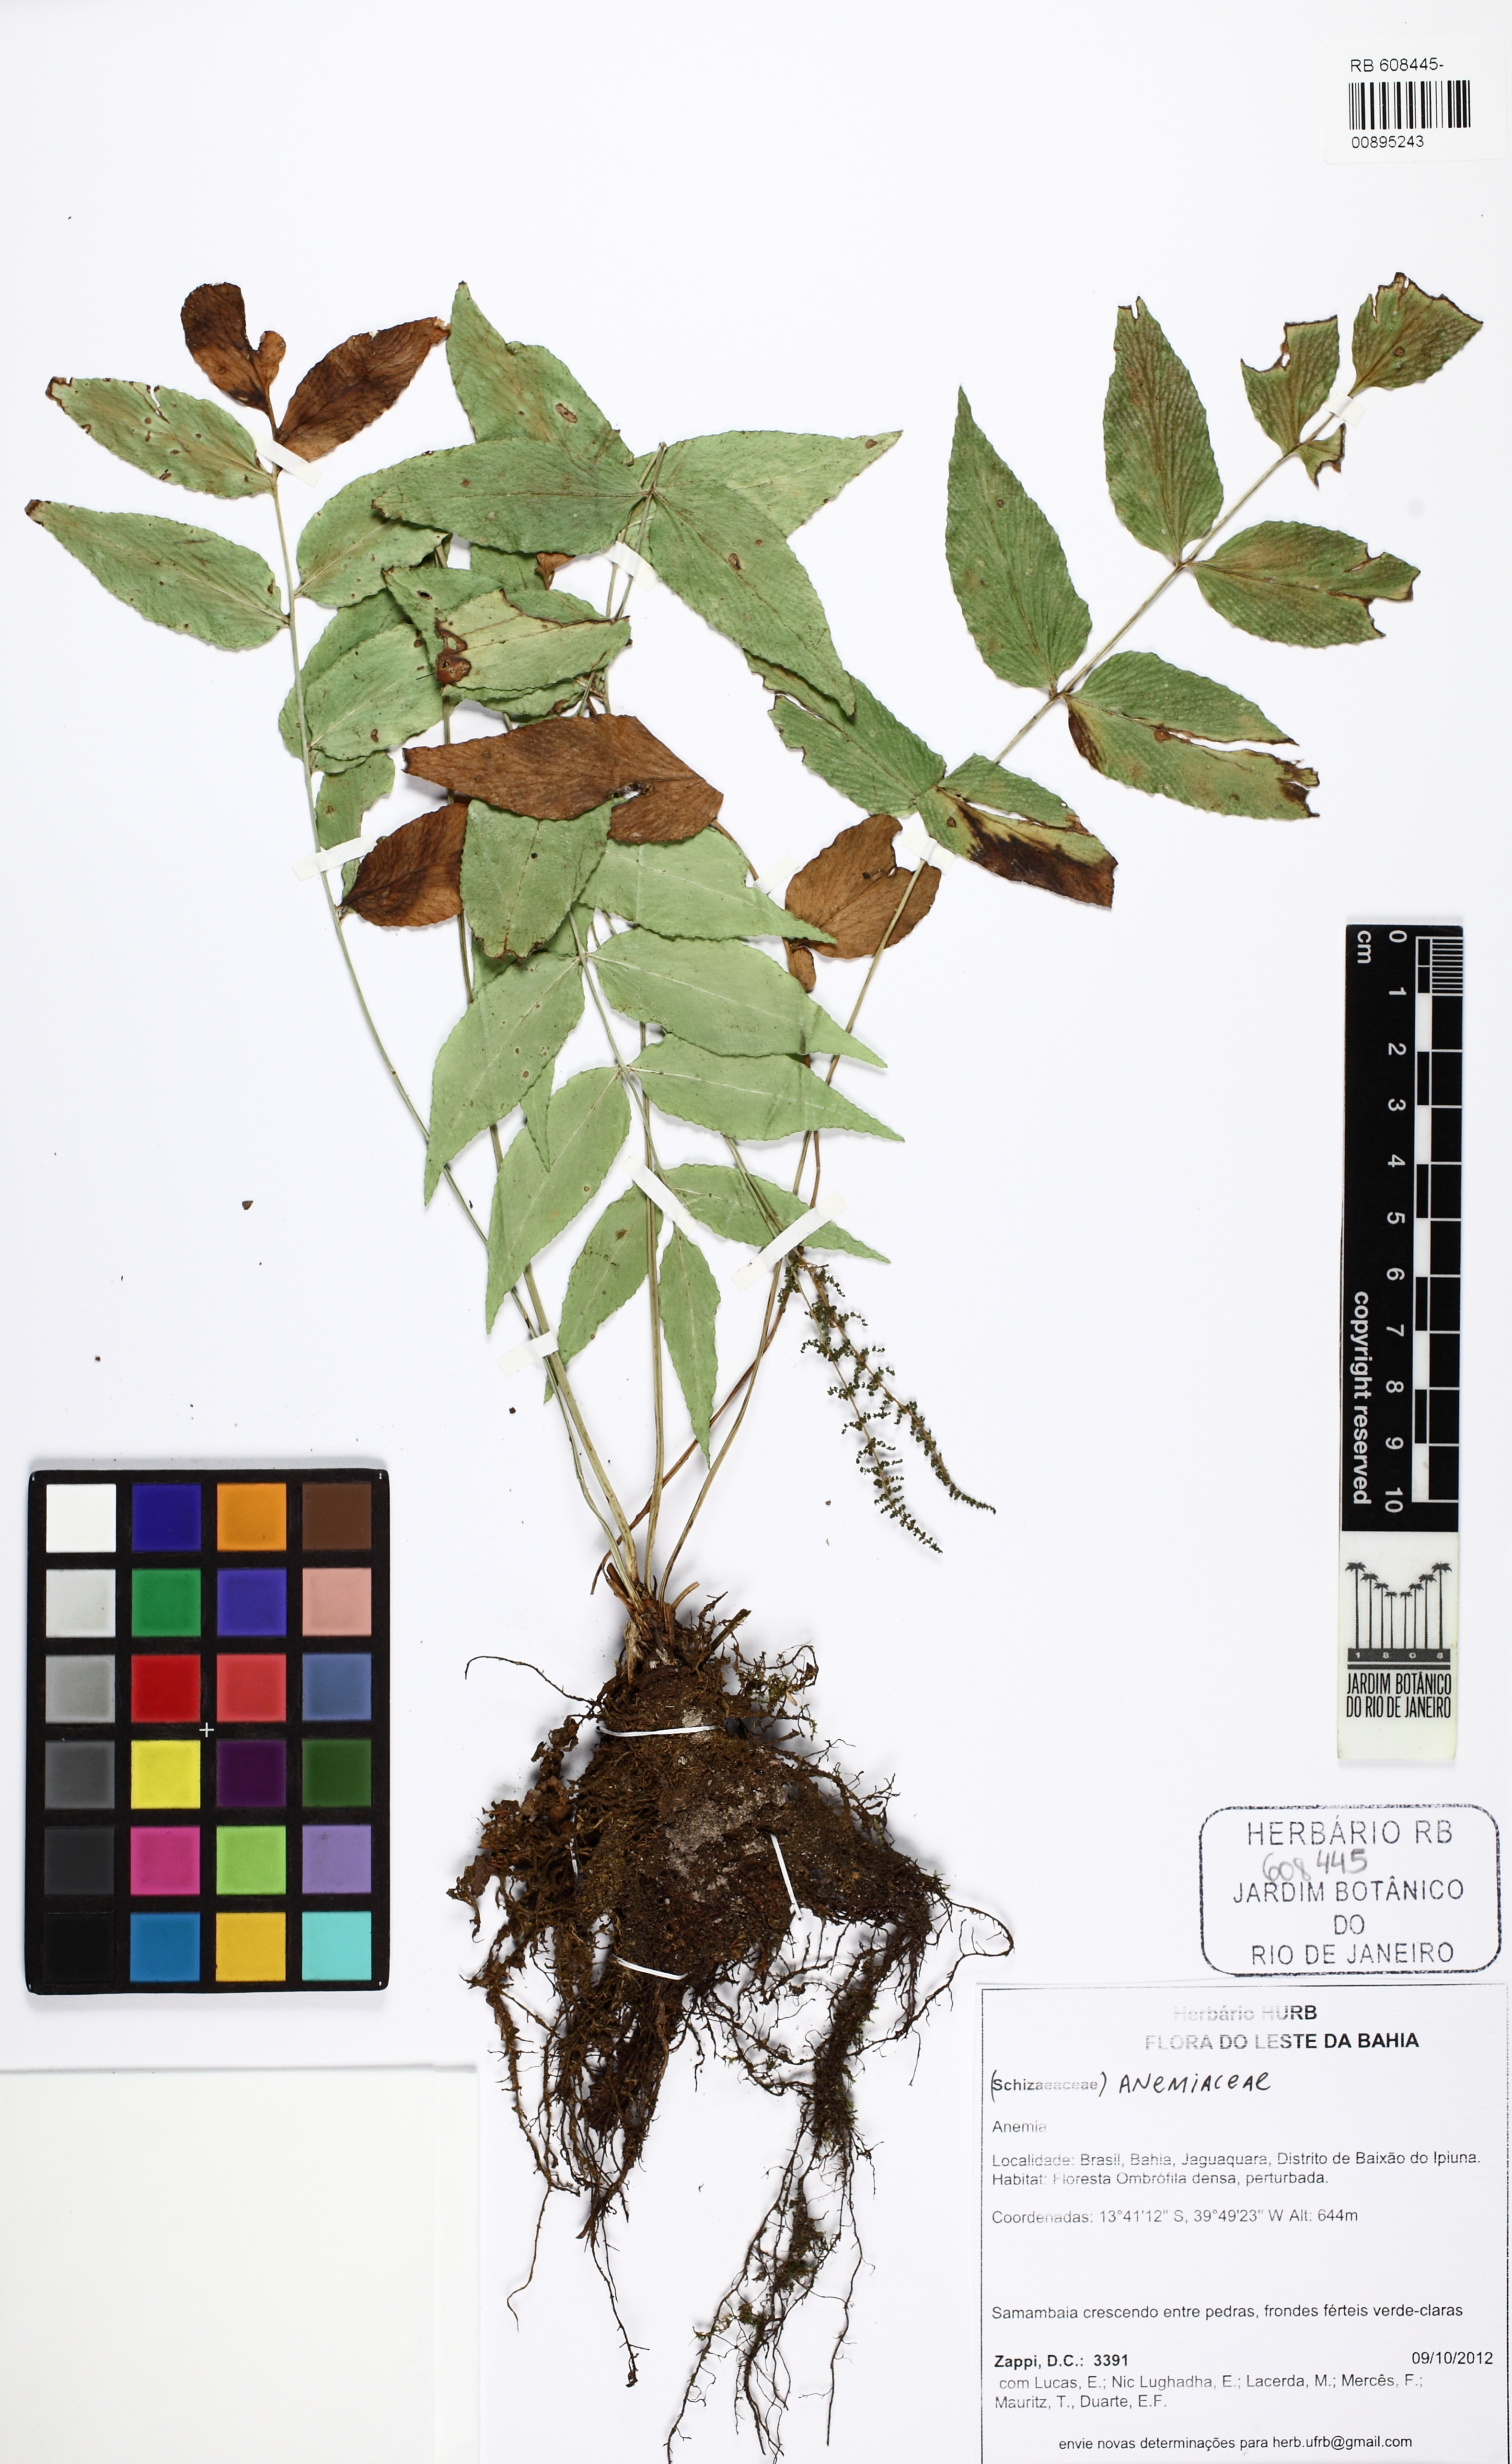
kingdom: Plantae
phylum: Tracheophyta
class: Polypodiopsida
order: Schizaeales
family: Anemiaceae
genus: Anemia
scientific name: Anemia phyllitidis
